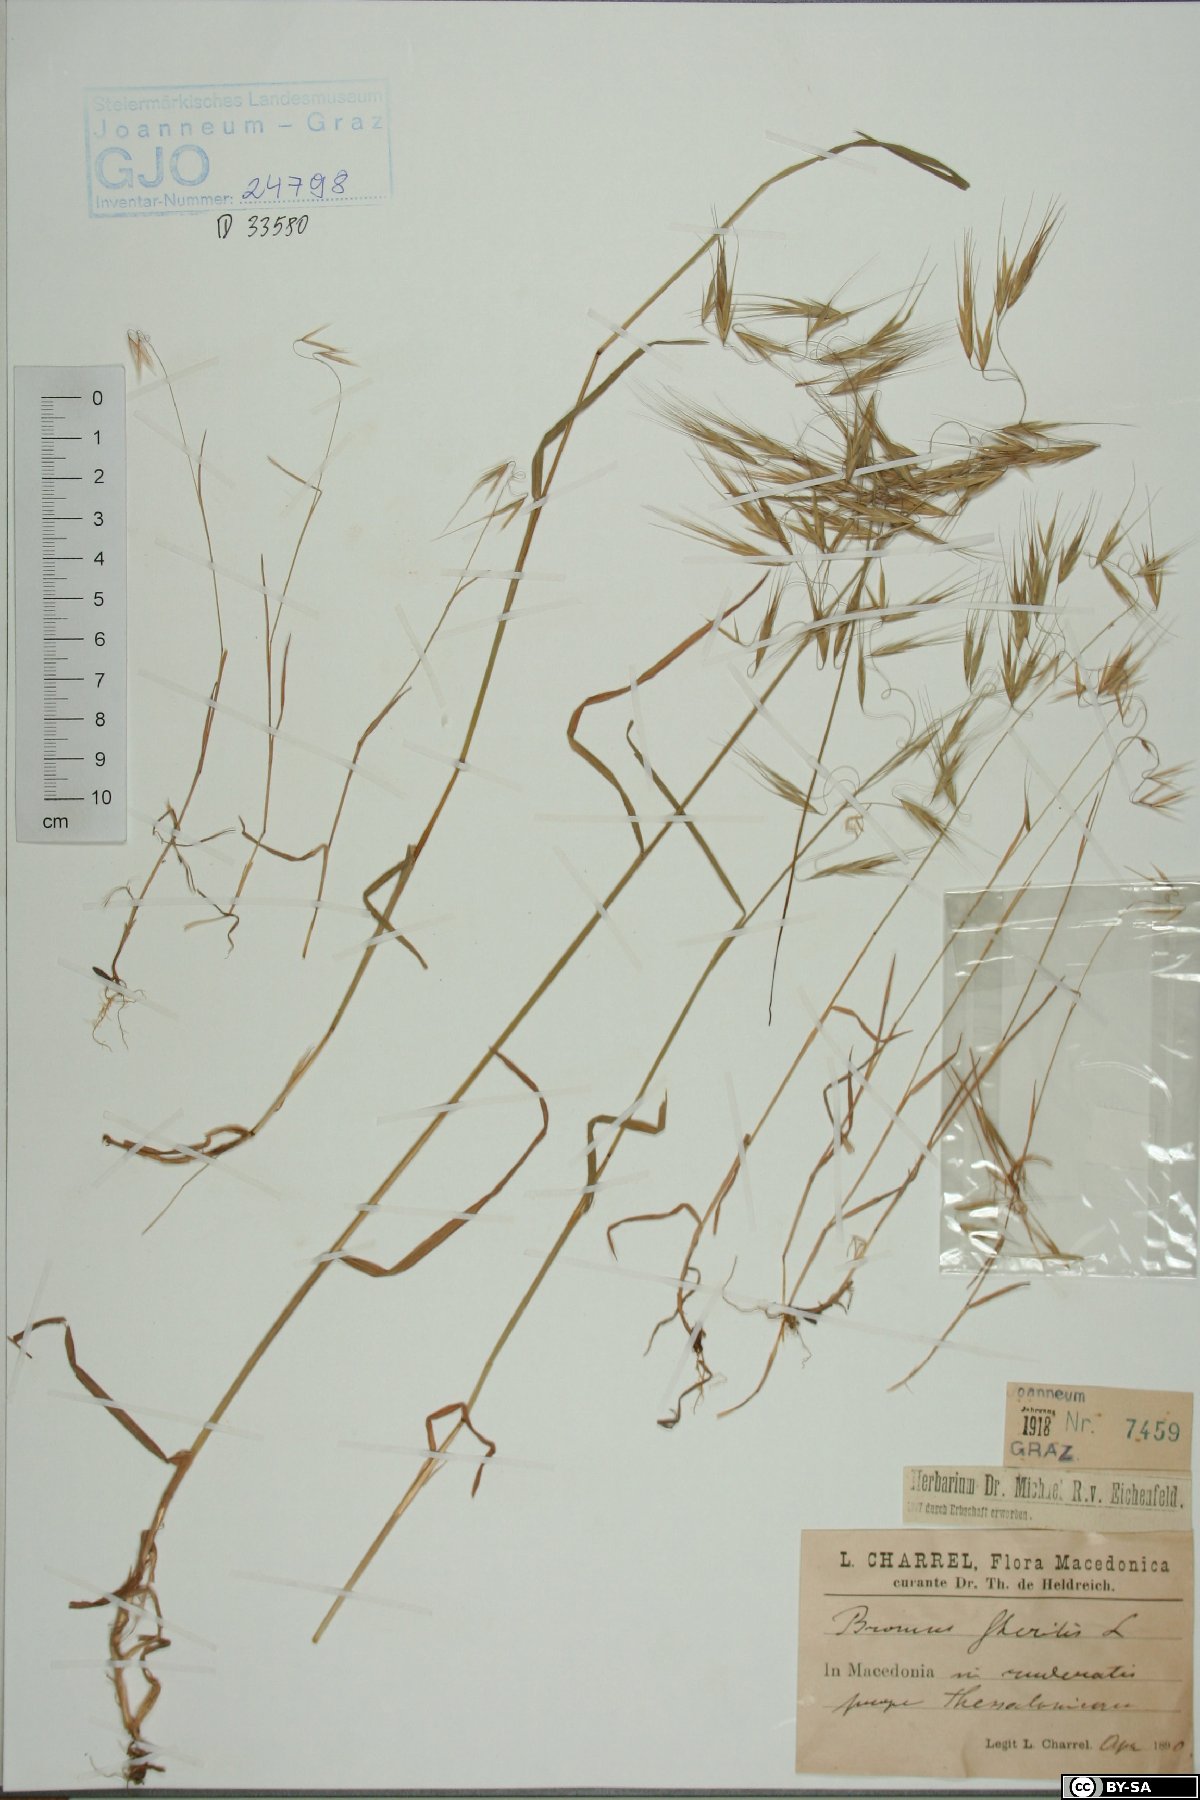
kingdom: Plantae
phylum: Tracheophyta
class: Liliopsida
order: Poales
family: Poaceae
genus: Bromus
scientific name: Bromus sterilis
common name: Poverty brome
